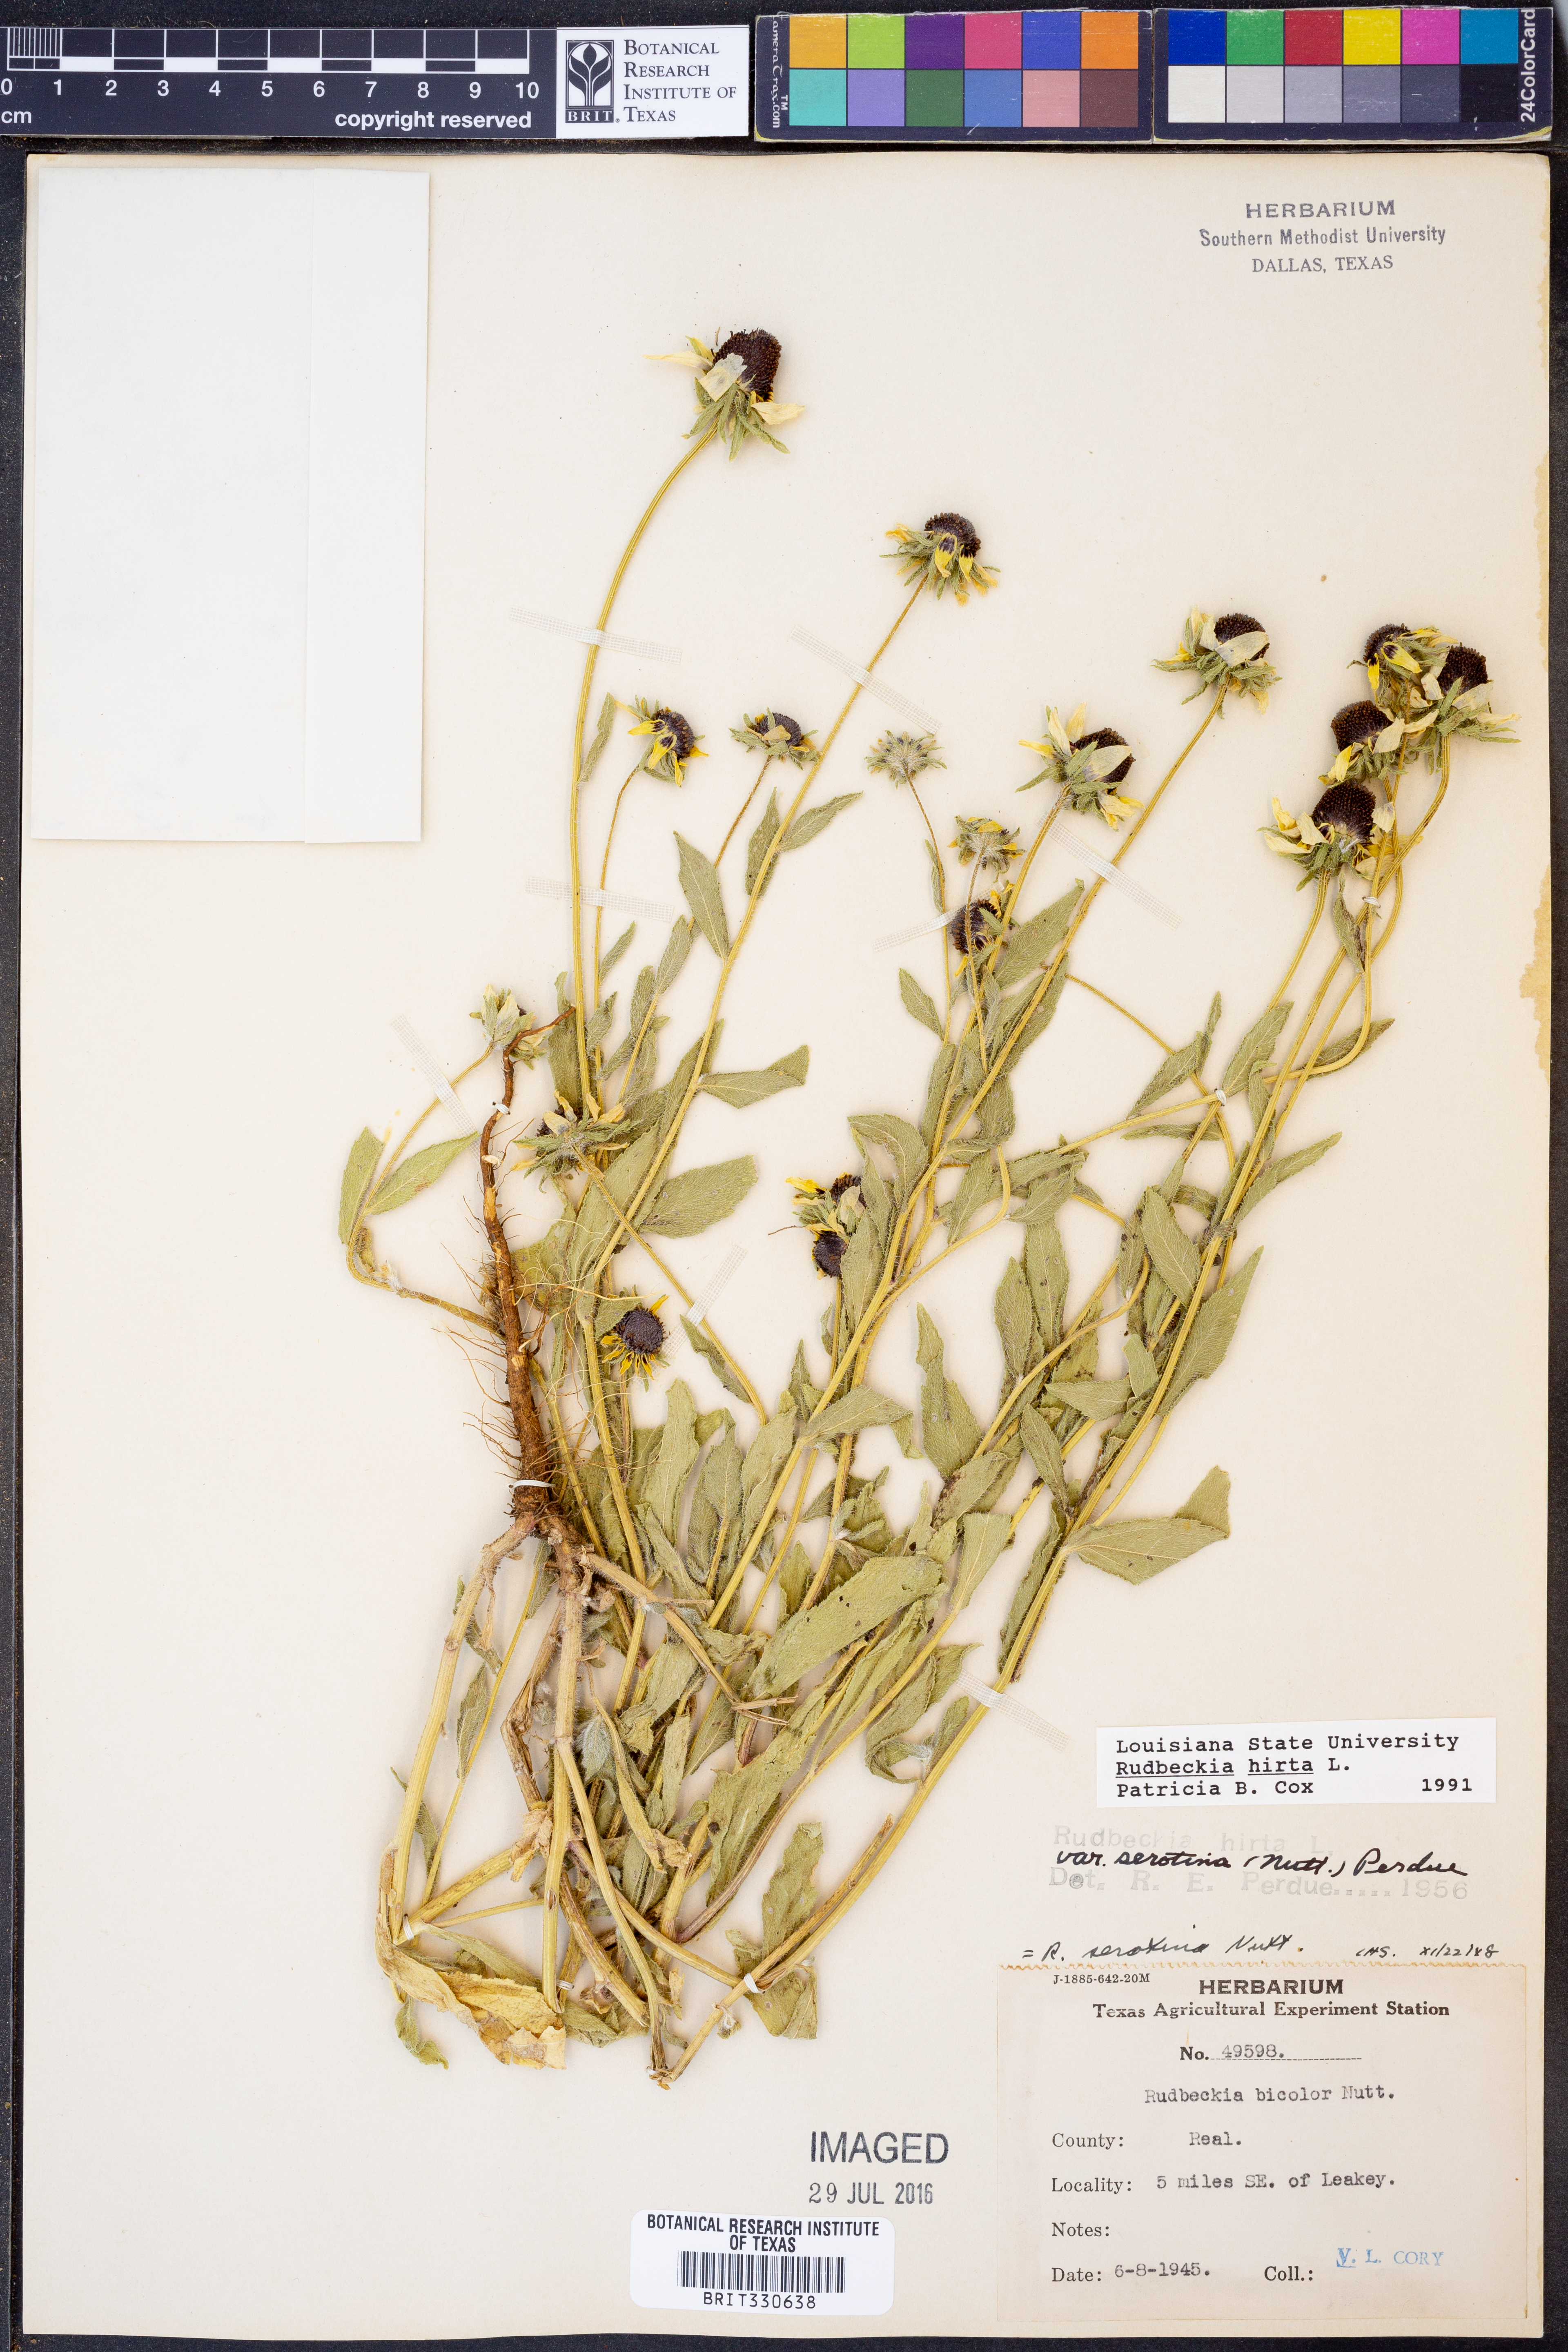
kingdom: Plantae
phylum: Tracheophyta
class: Magnoliopsida
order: Asterales
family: Asteraceae
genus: Rudbeckia
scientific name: Rudbeckia hirta
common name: Black-eyed-susan
